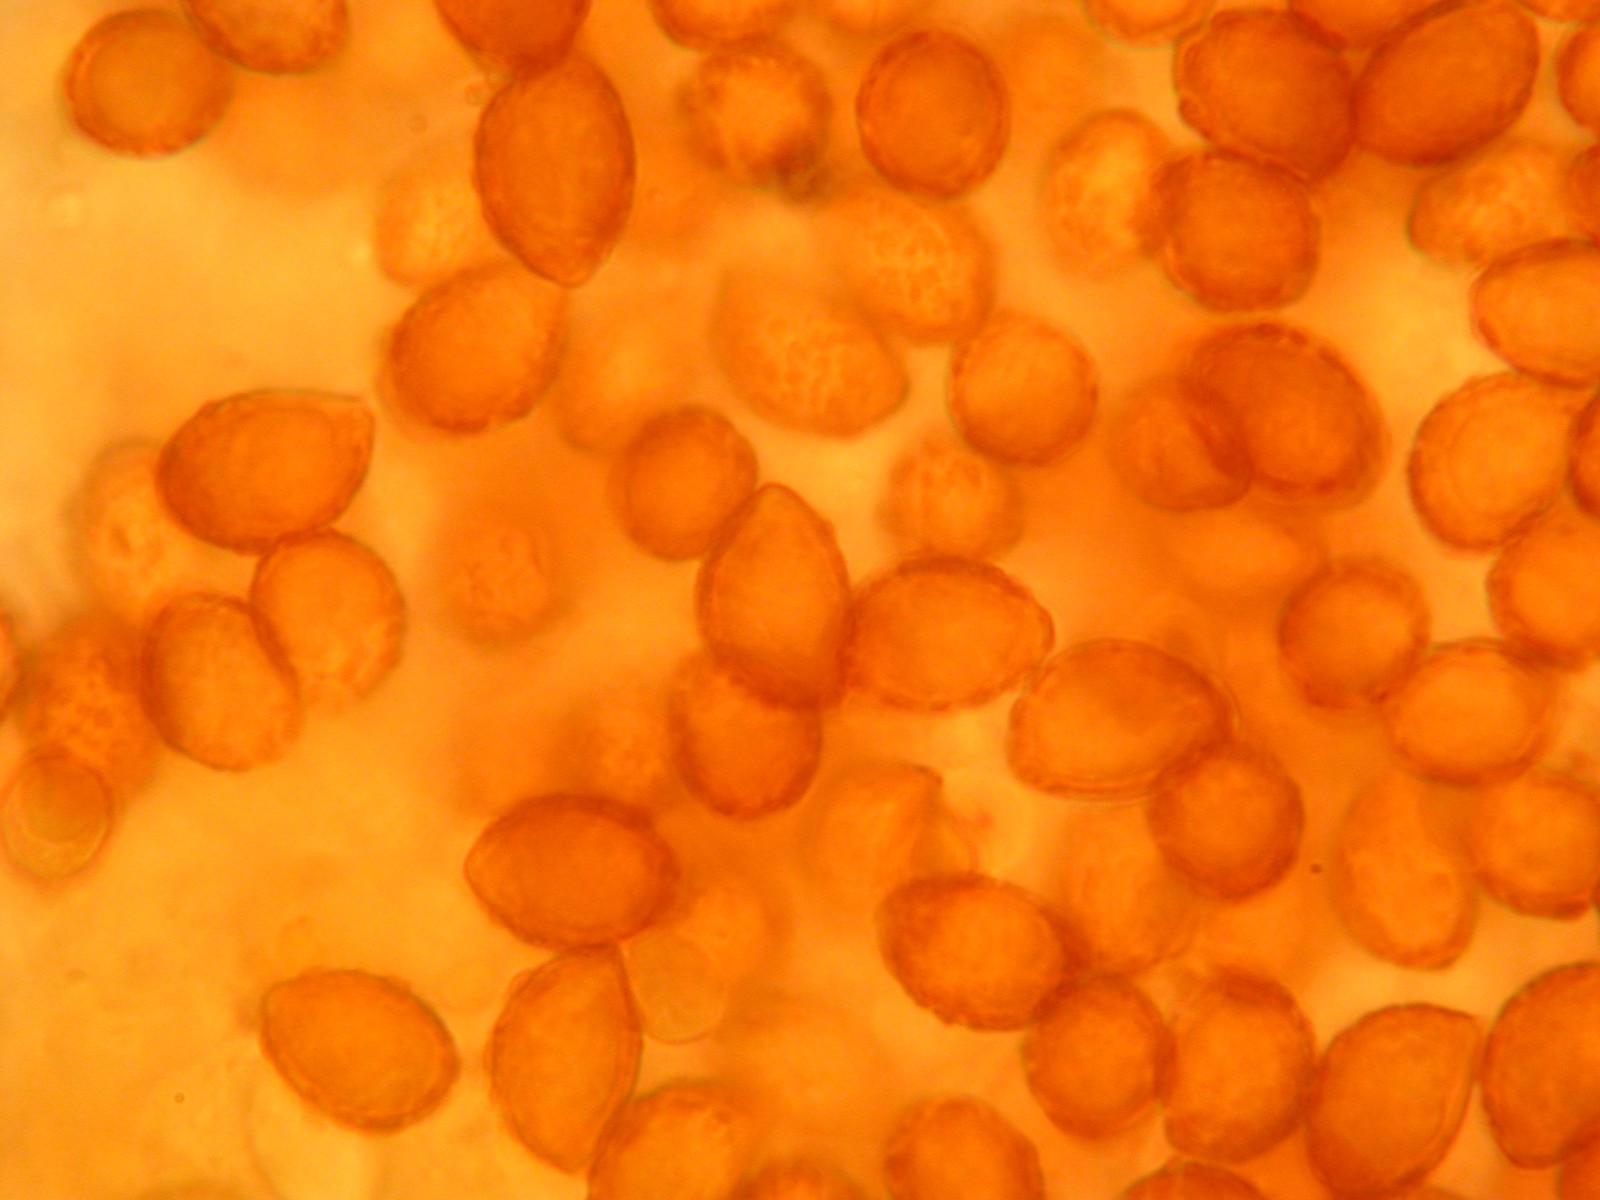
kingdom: Fungi
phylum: Basidiomycota
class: Agaricomycetes
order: Agaricales
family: Cortinariaceae
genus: Cortinarius
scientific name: Cortinarius mucifluus
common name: rynket slørhat
